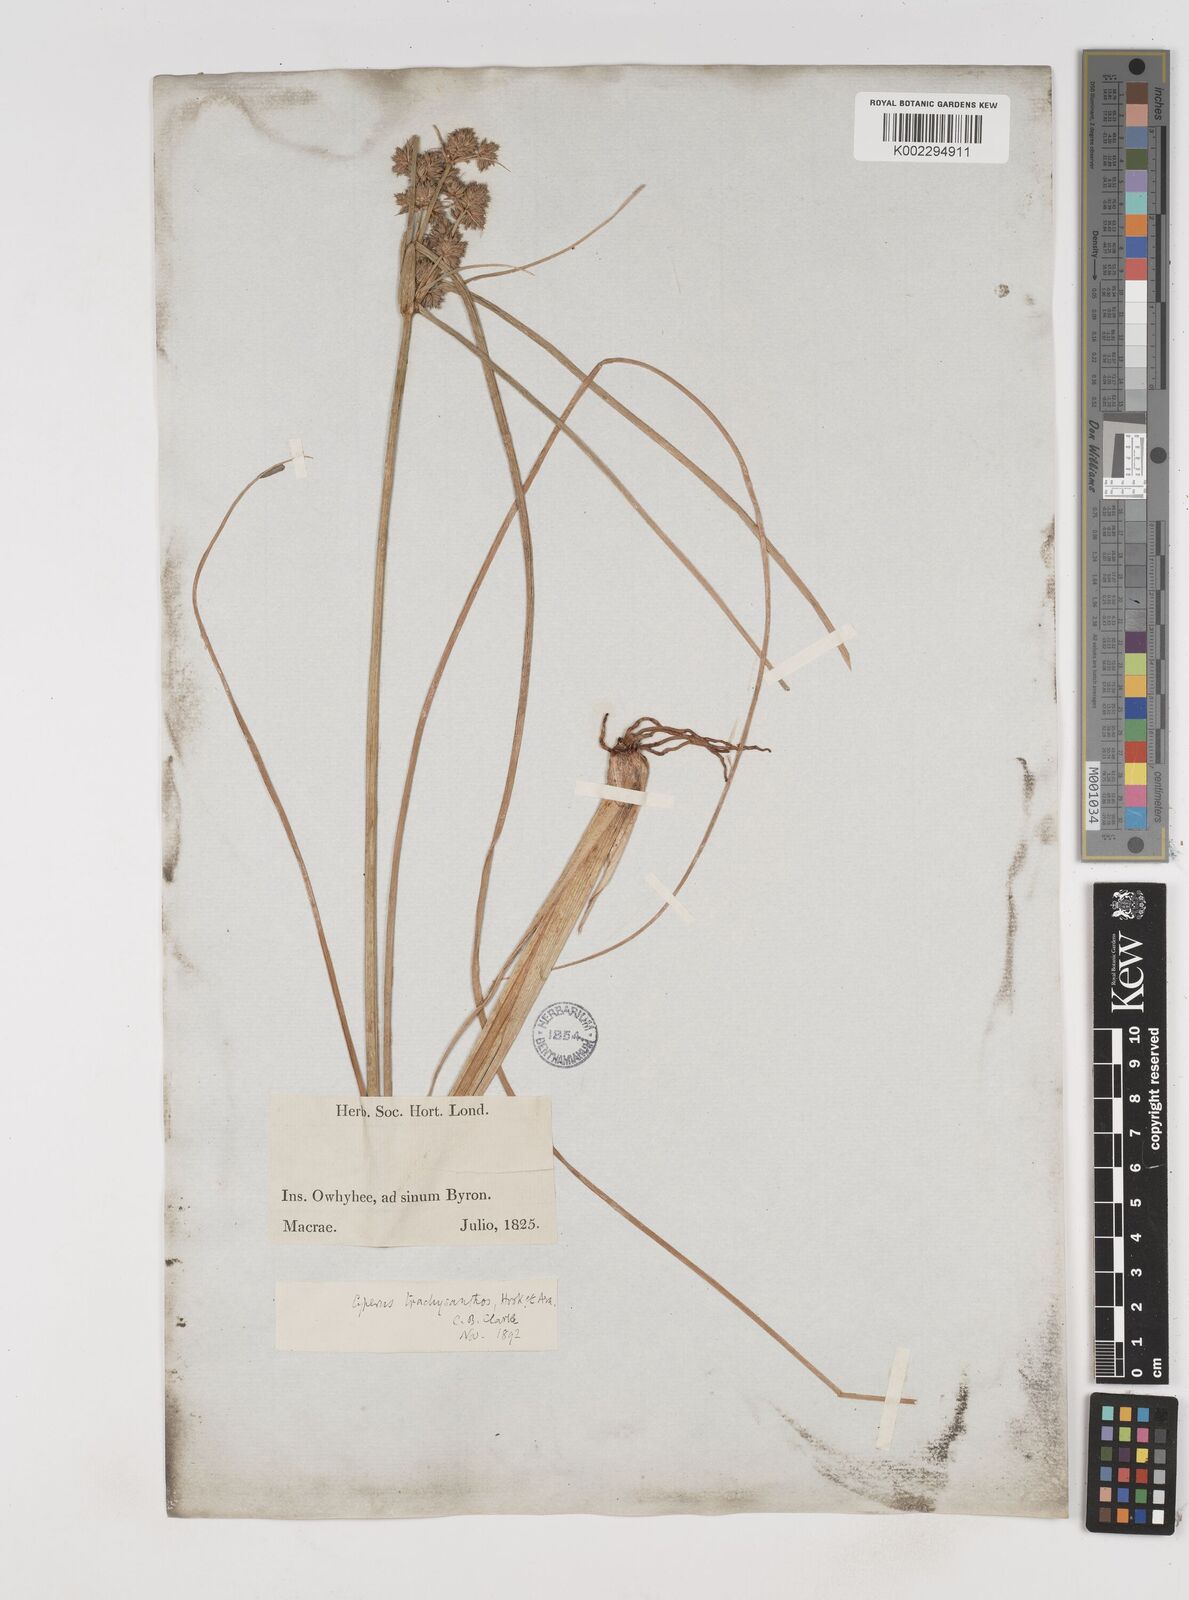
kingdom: Plantae
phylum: Tracheophyta
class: Liliopsida
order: Poales
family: Cyperaceae
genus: Cyperus
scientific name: Cyperus trachysanthos
